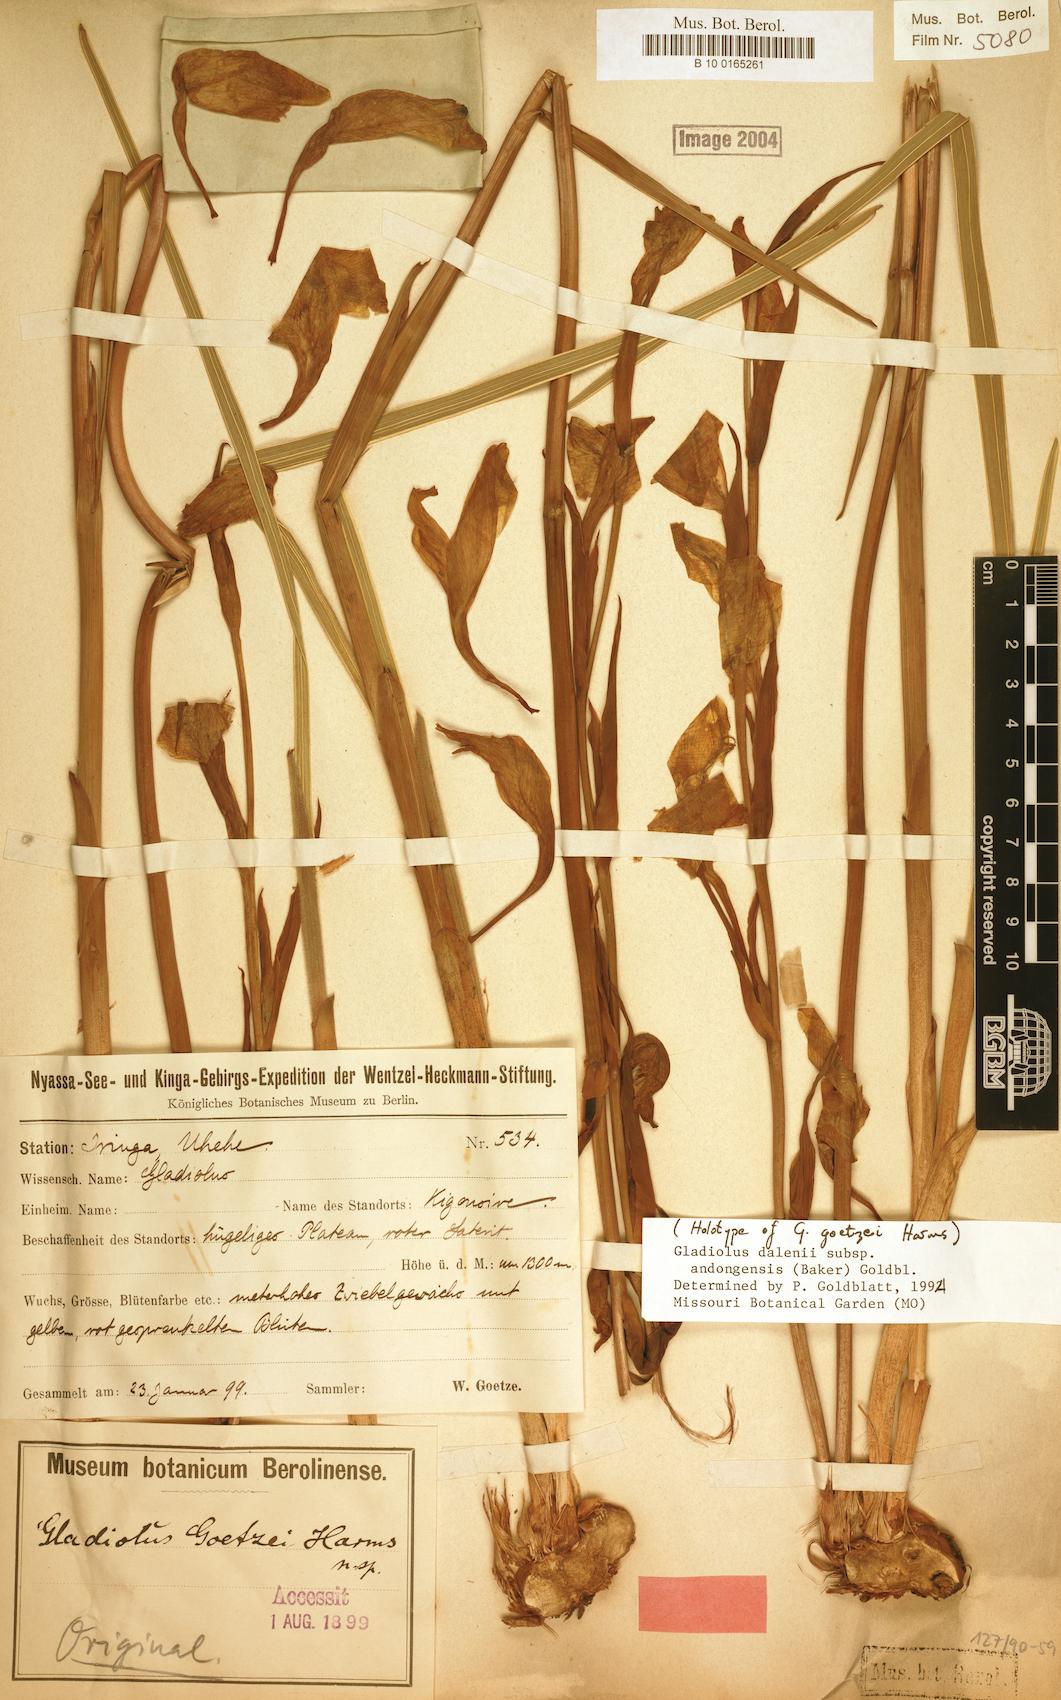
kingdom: Plantae
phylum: Tracheophyta
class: Liliopsida
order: Asparagales
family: Iridaceae
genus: Gladiolus
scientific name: Gladiolus dalenii
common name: Cornflag
